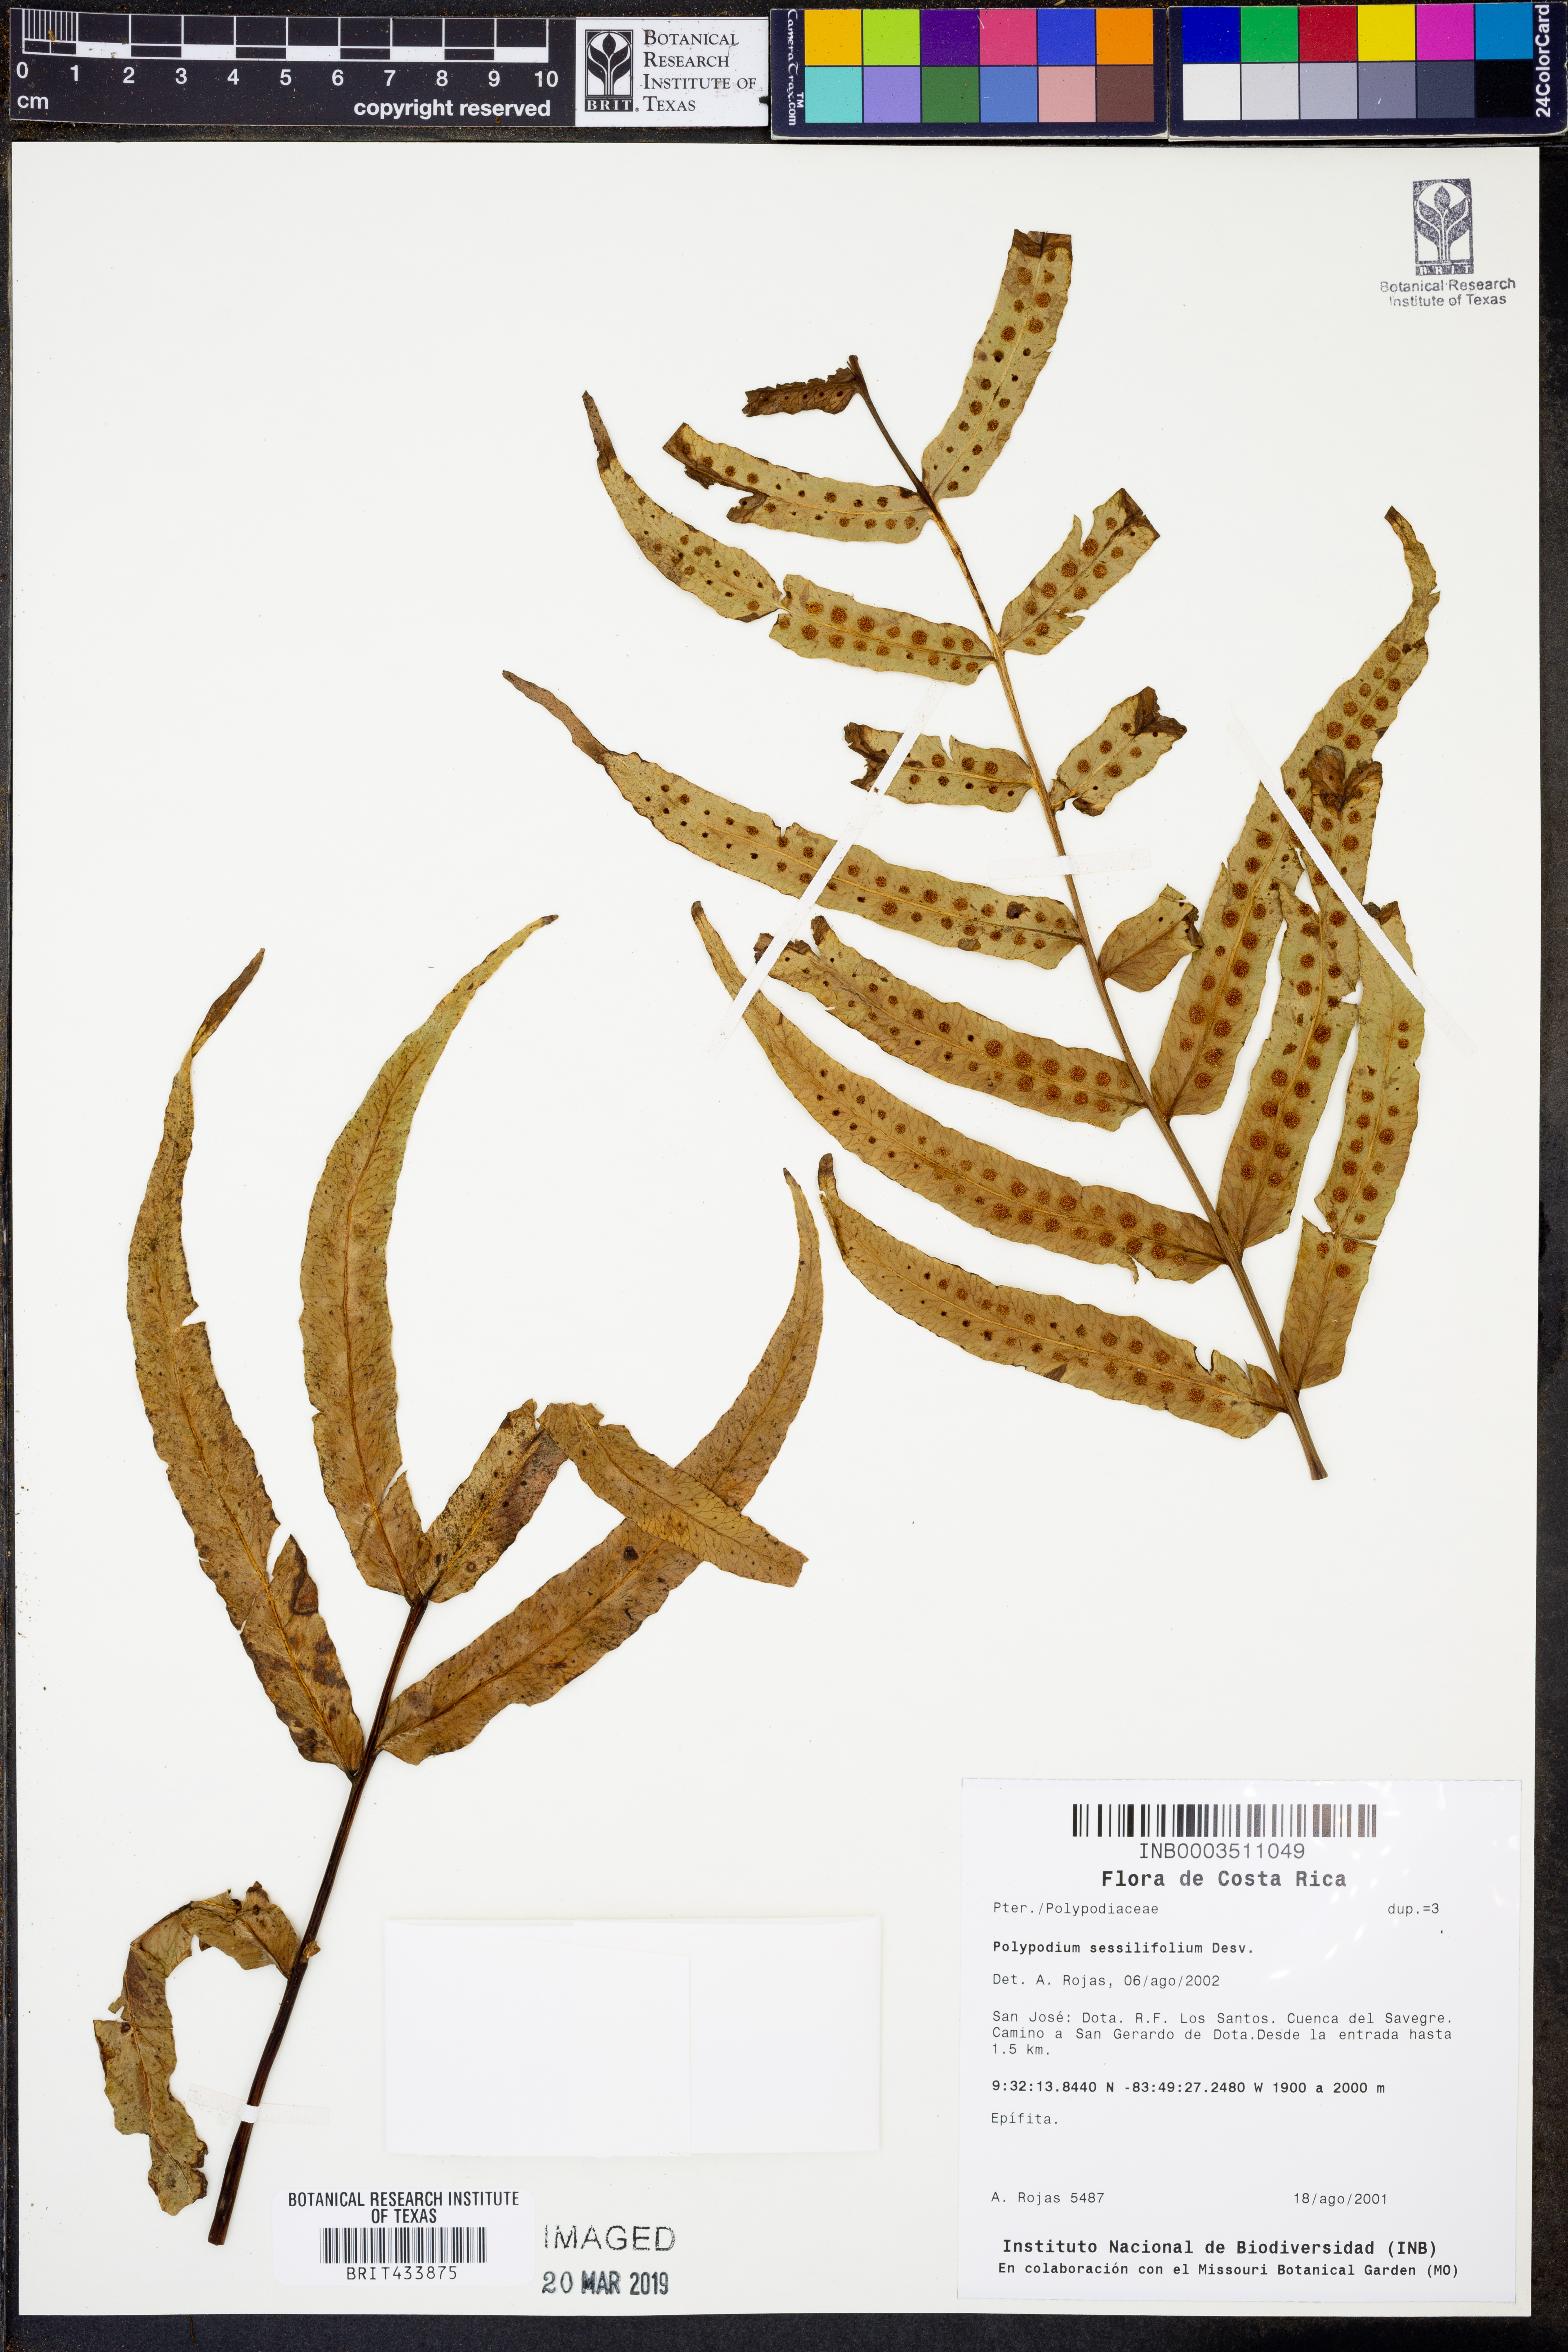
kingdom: Plantae
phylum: Tracheophyta
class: Polypodiopsida
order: Polypodiales
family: Polypodiaceae
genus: Serpocaulon
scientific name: Serpocaulon sessilifolium
